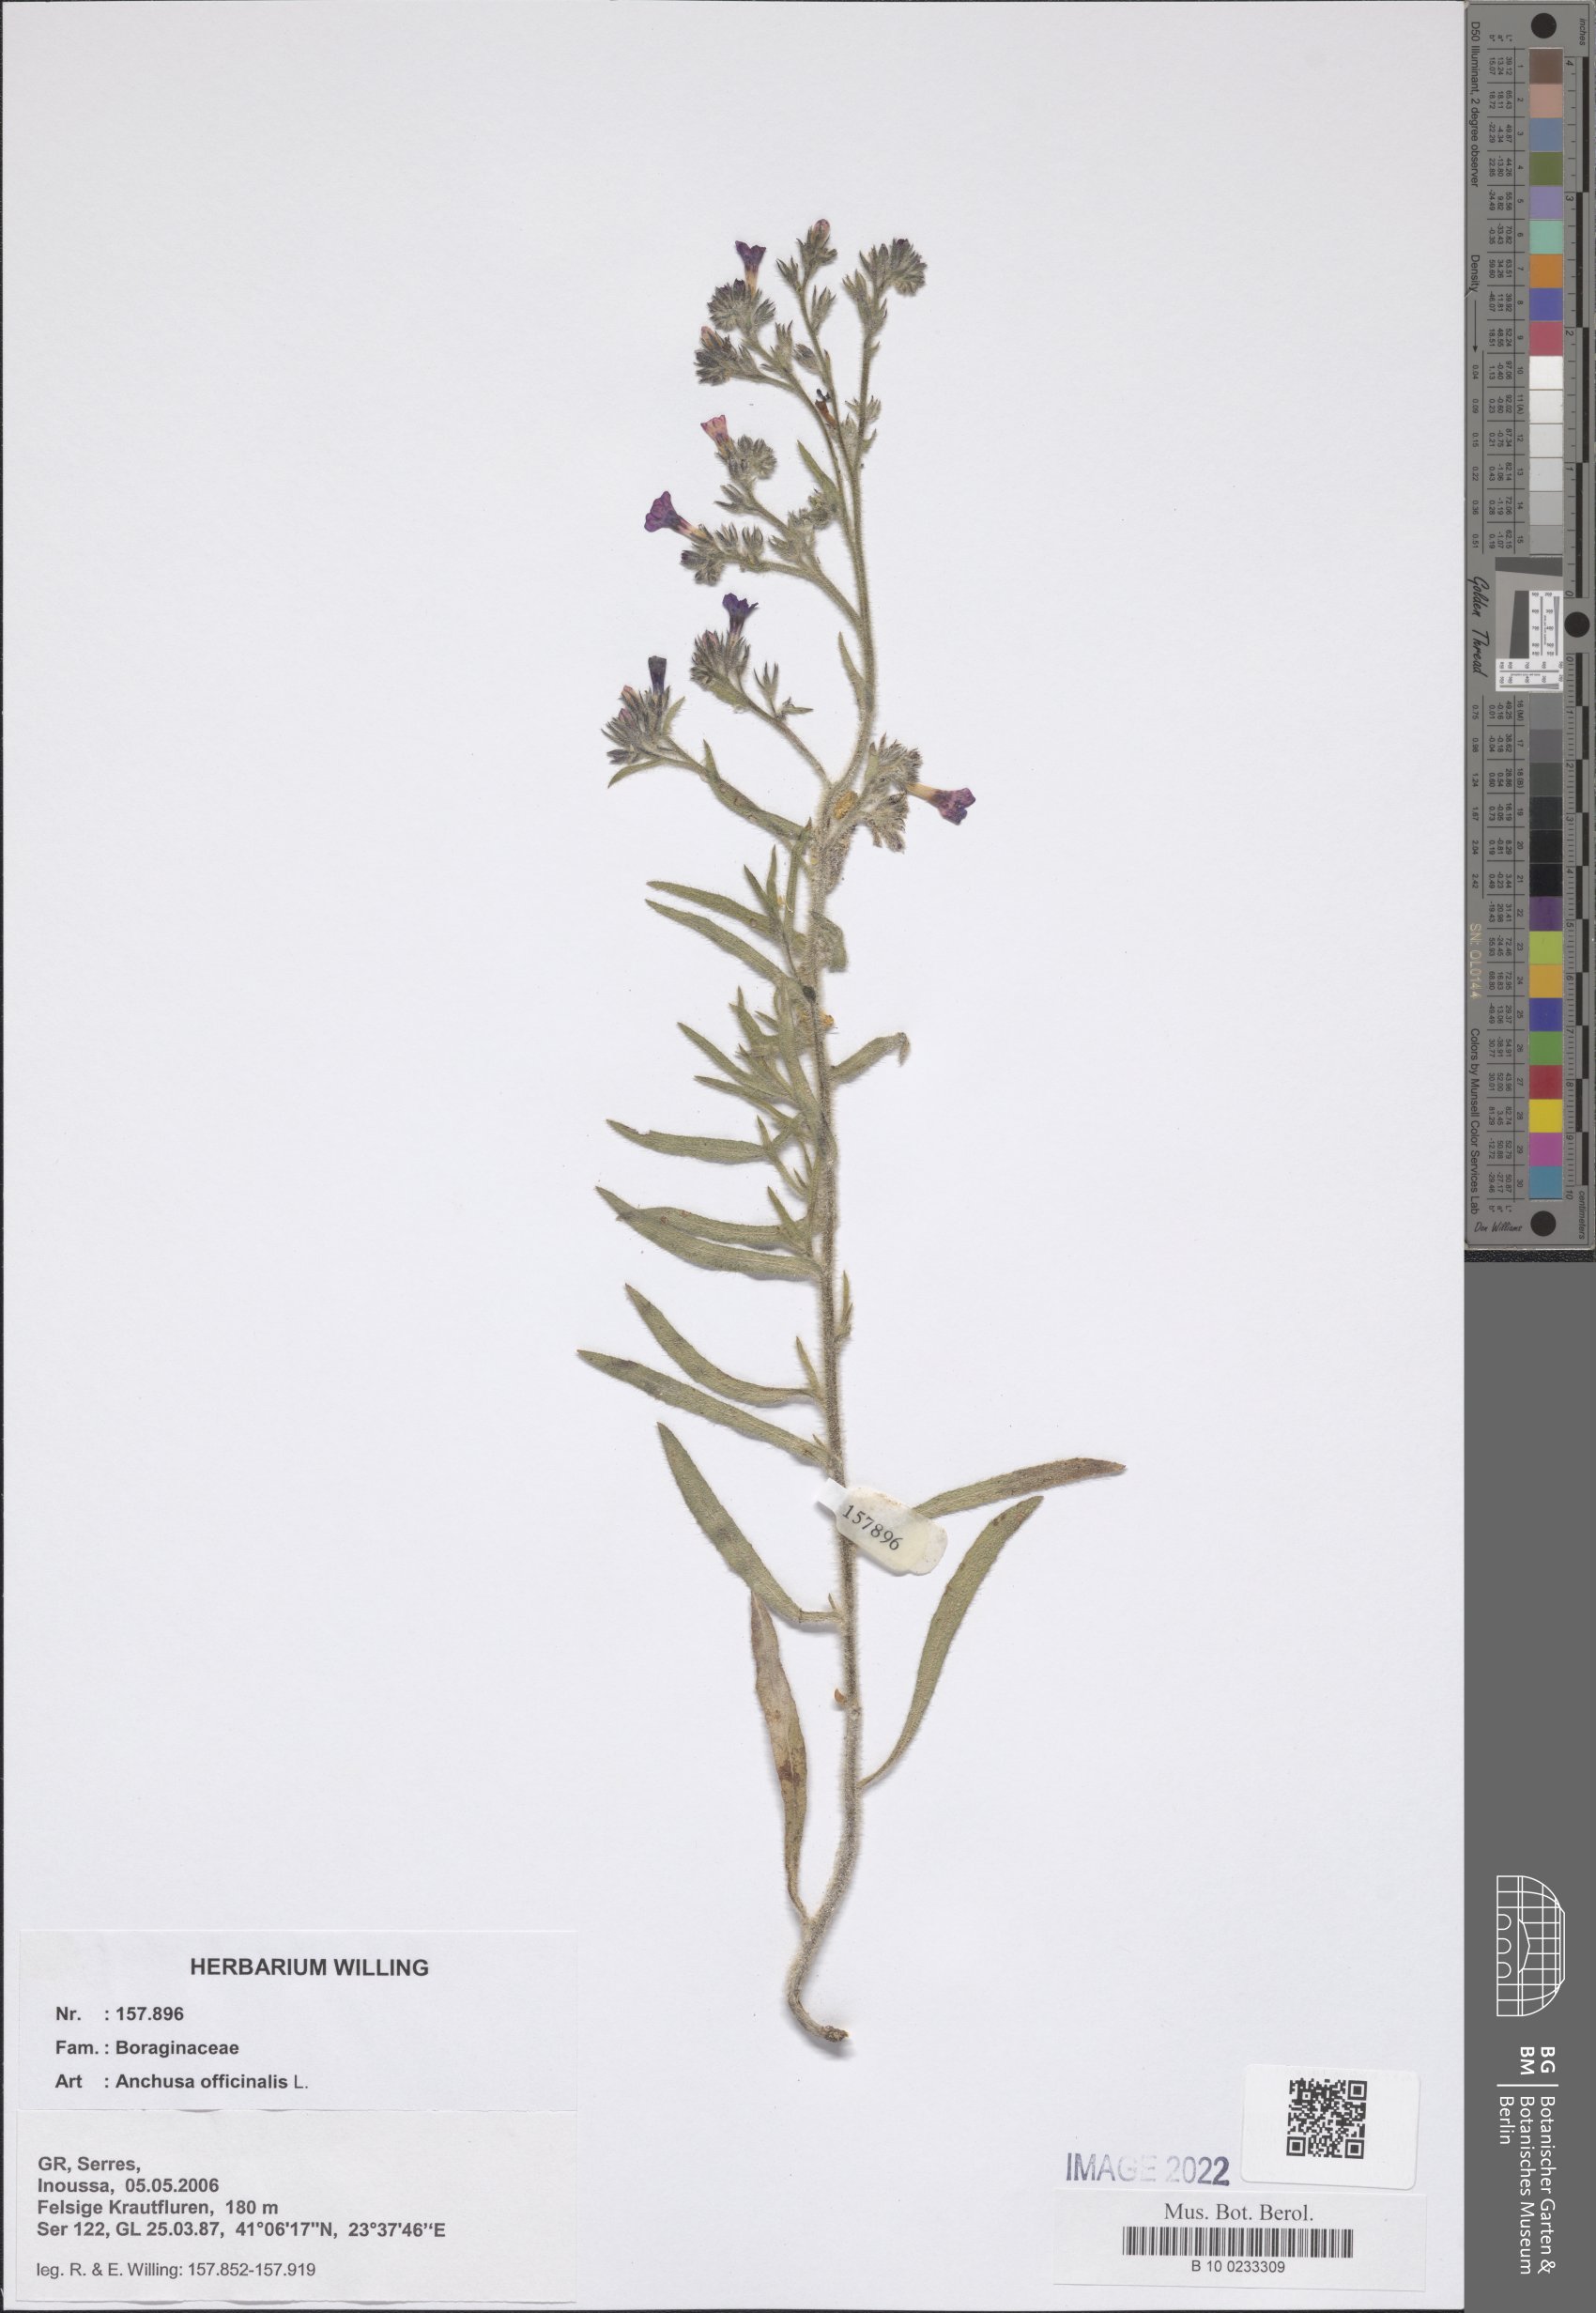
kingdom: Plantae
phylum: Tracheophyta
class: Magnoliopsida
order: Boraginales
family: Boraginaceae
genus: Anchusa
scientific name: Anchusa officinalis
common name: Alkanet
